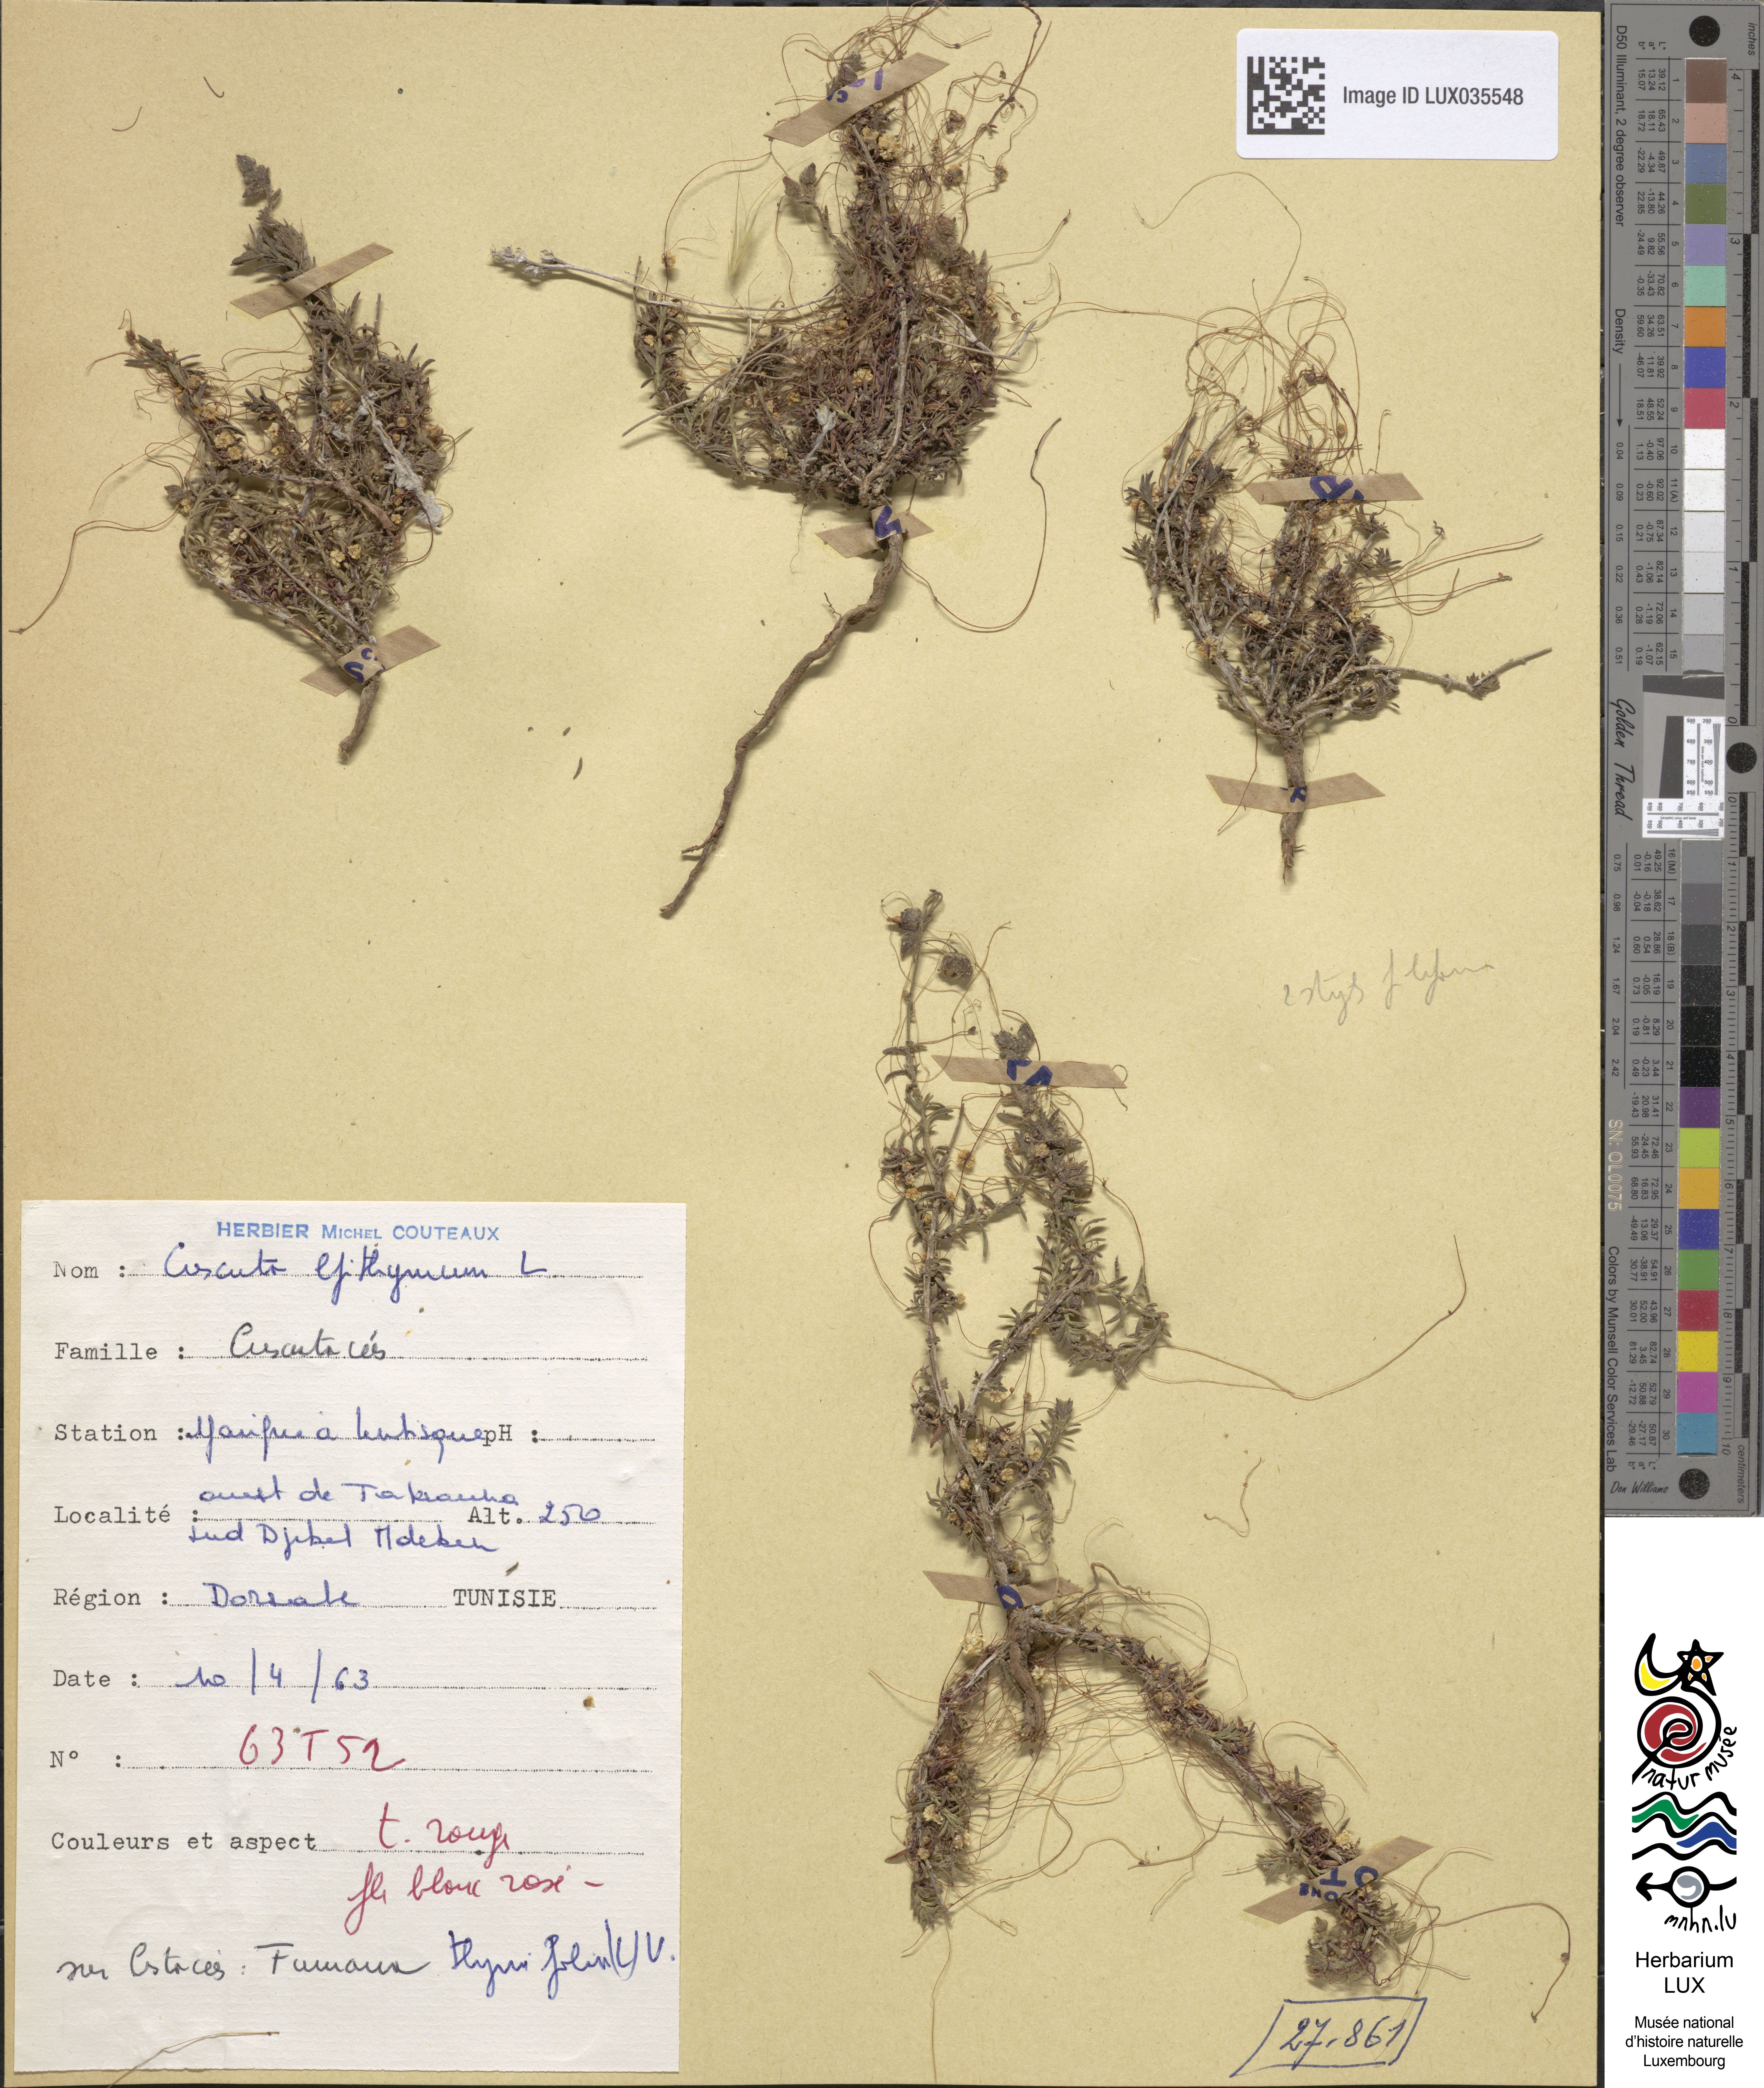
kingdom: Plantae
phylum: Tracheophyta
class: Magnoliopsida
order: Solanales
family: Convolvulaceae
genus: Cuscuta
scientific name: Cuscuta epithymum
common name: Clover dodder
